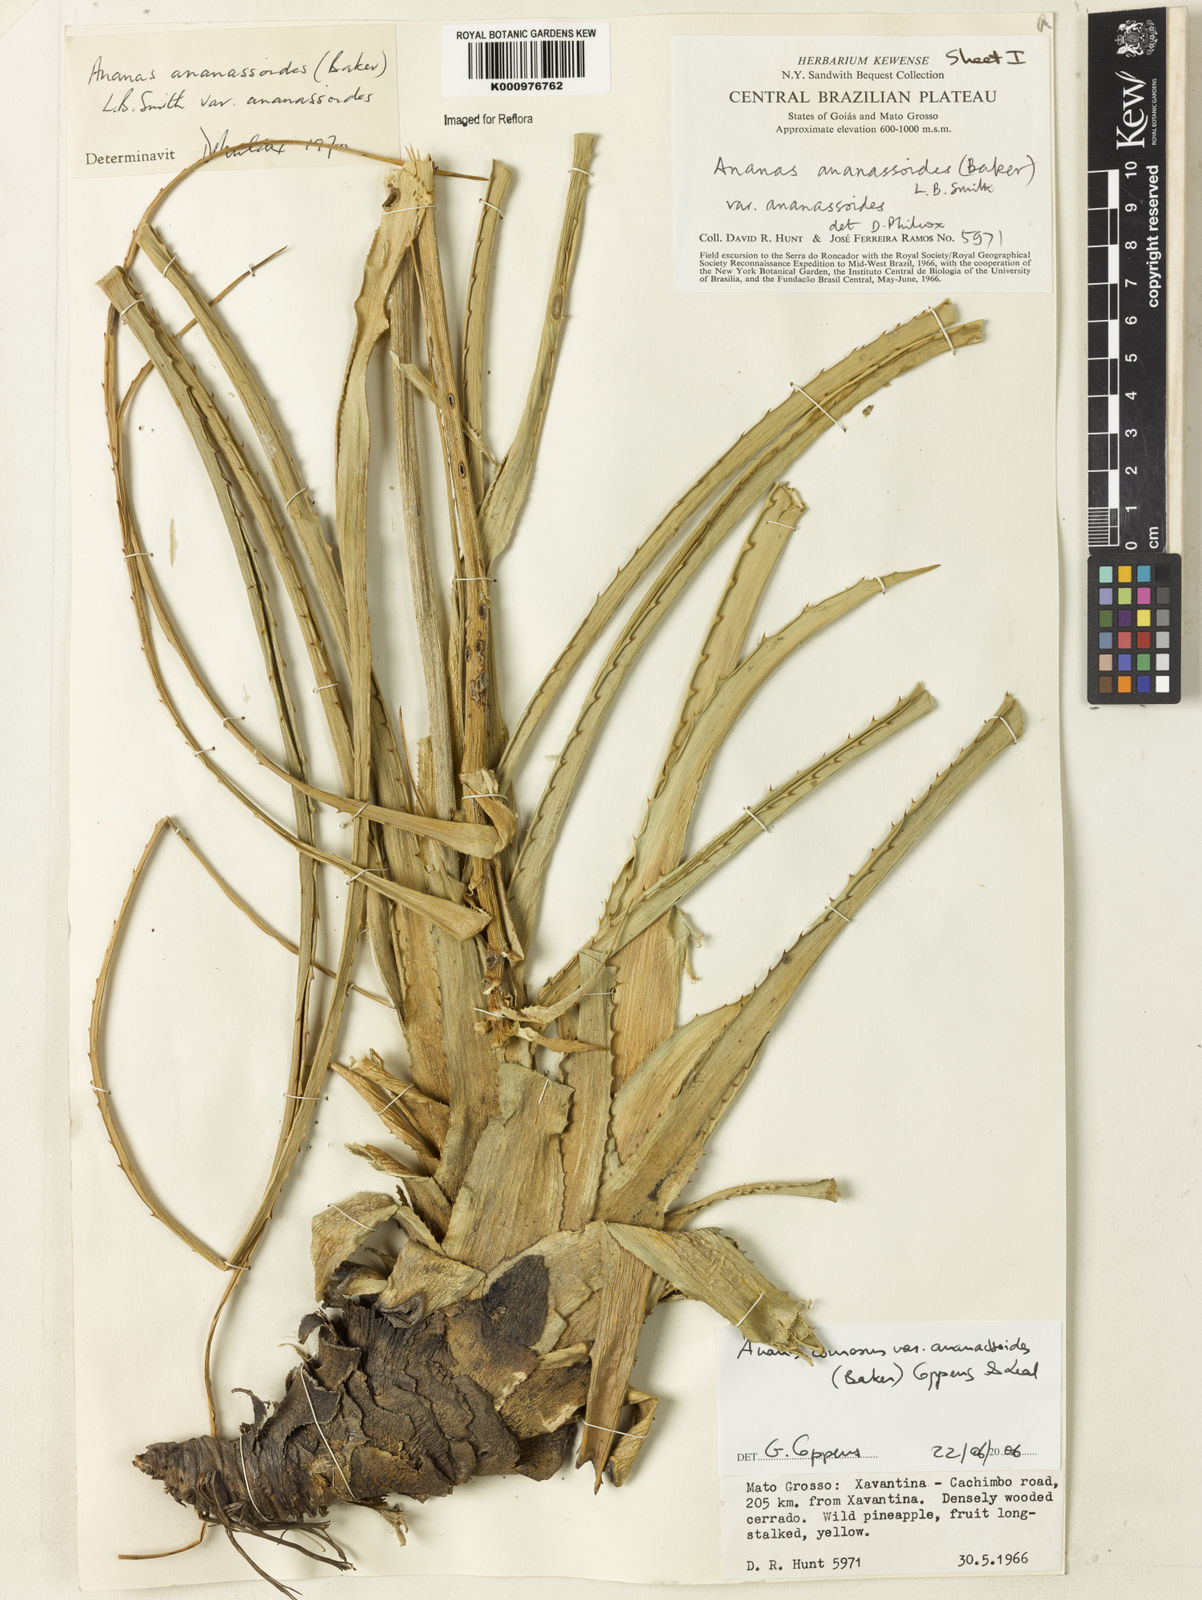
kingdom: Plantae
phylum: Tracheophyta
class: Liliopsida
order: Poales
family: Bromeliaceae
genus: Ananas
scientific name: Ananas comosus
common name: Pineapple
